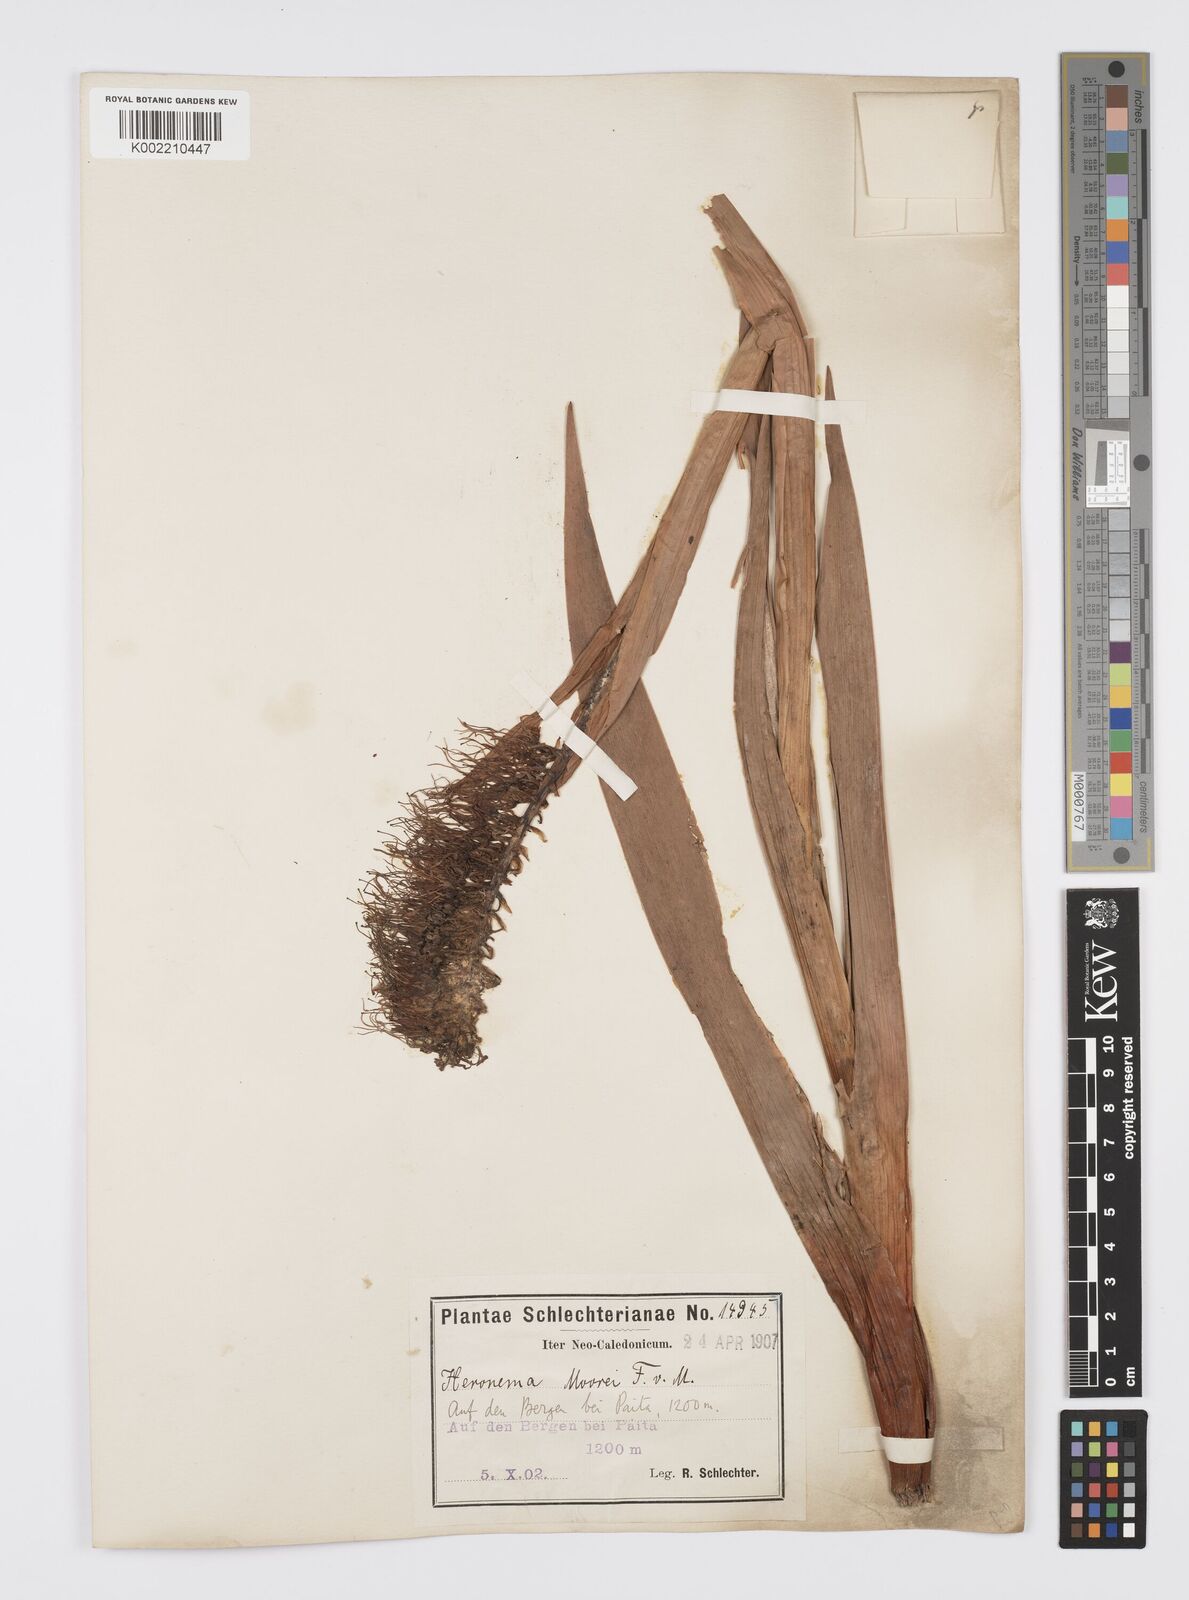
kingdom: Plantae
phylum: Tracheophyta
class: Liliopsida
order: Asparagales
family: Xeronemataceae
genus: Xeronema
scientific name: Xeronema moorei
